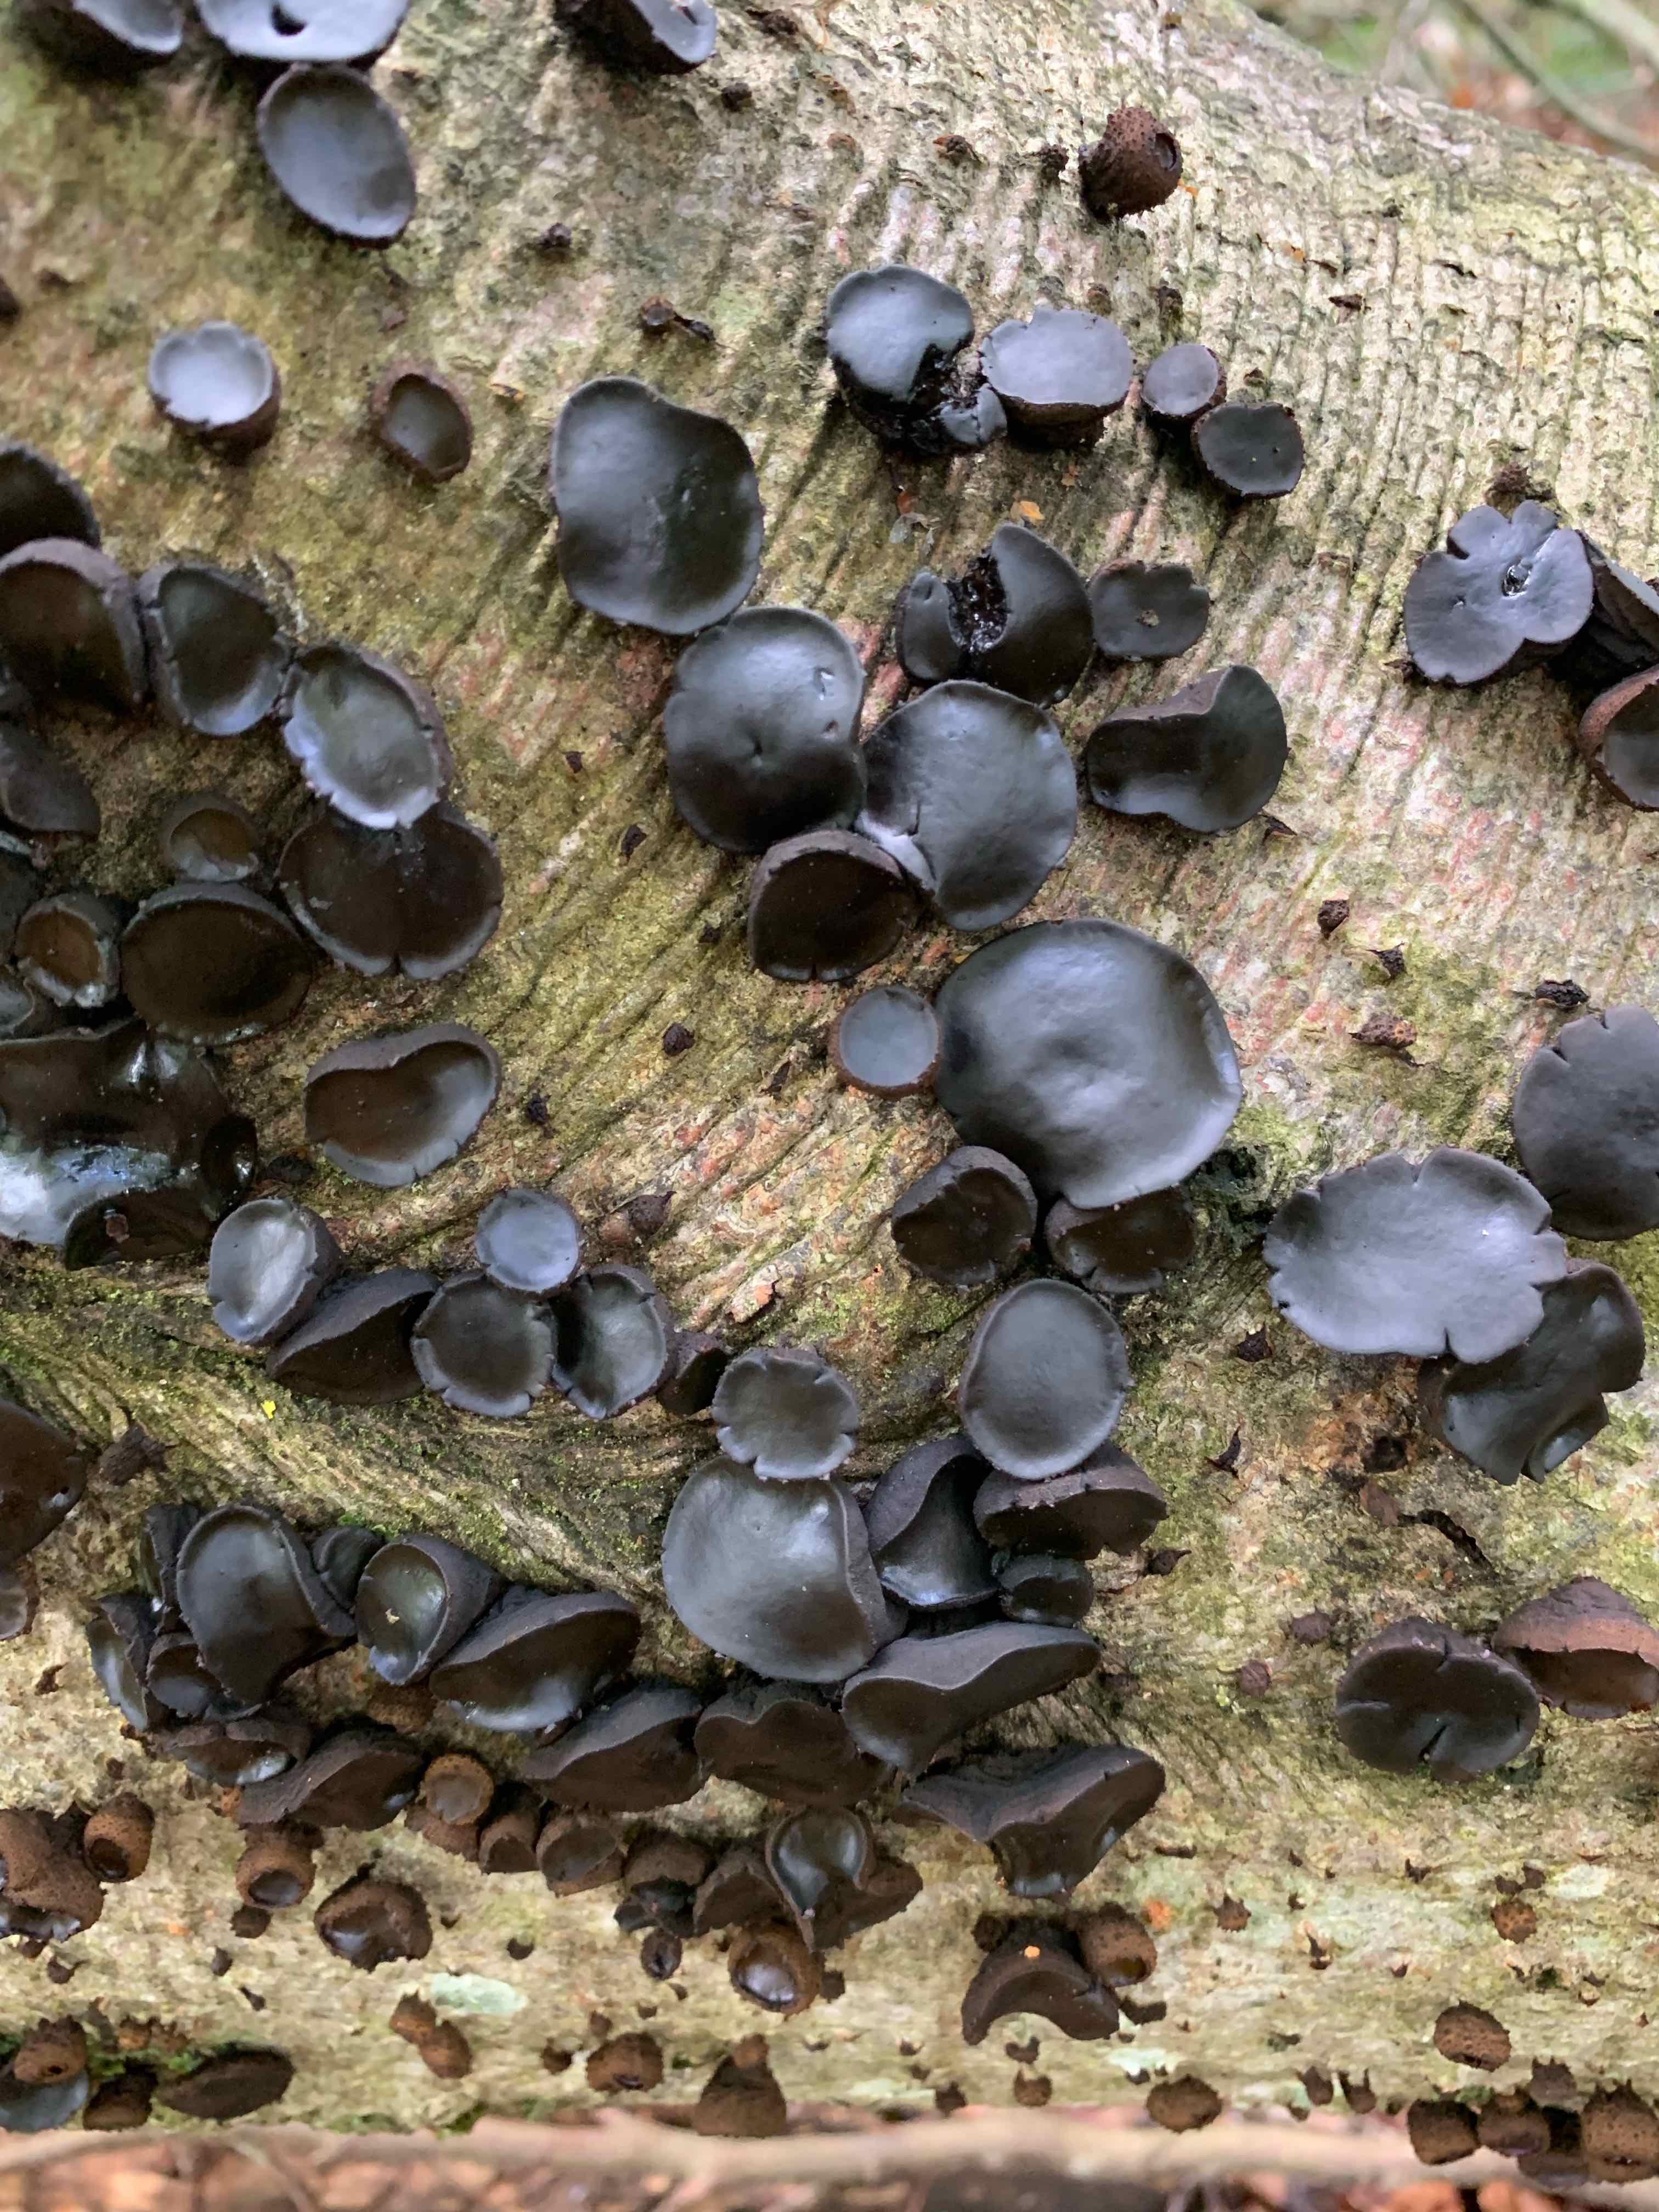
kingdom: Fungi
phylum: Ascomycota
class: Leotiomycetes
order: Phacidiales
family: Phacidiaceae
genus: Bulgaria
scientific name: Bulgaria inquinans
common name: afsmittende topsvamp
